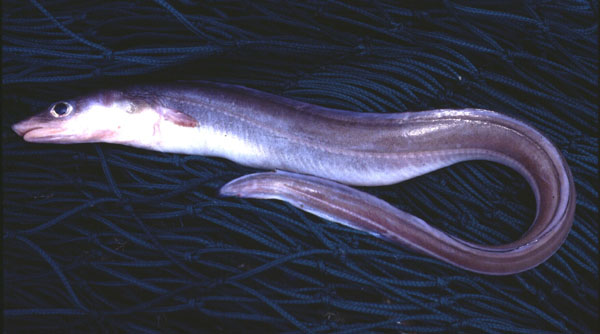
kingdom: Animalia
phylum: Chordata
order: Anguilliformes
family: Congridae
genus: Bassanago
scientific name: Bassanago albescens
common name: Hairy conger
